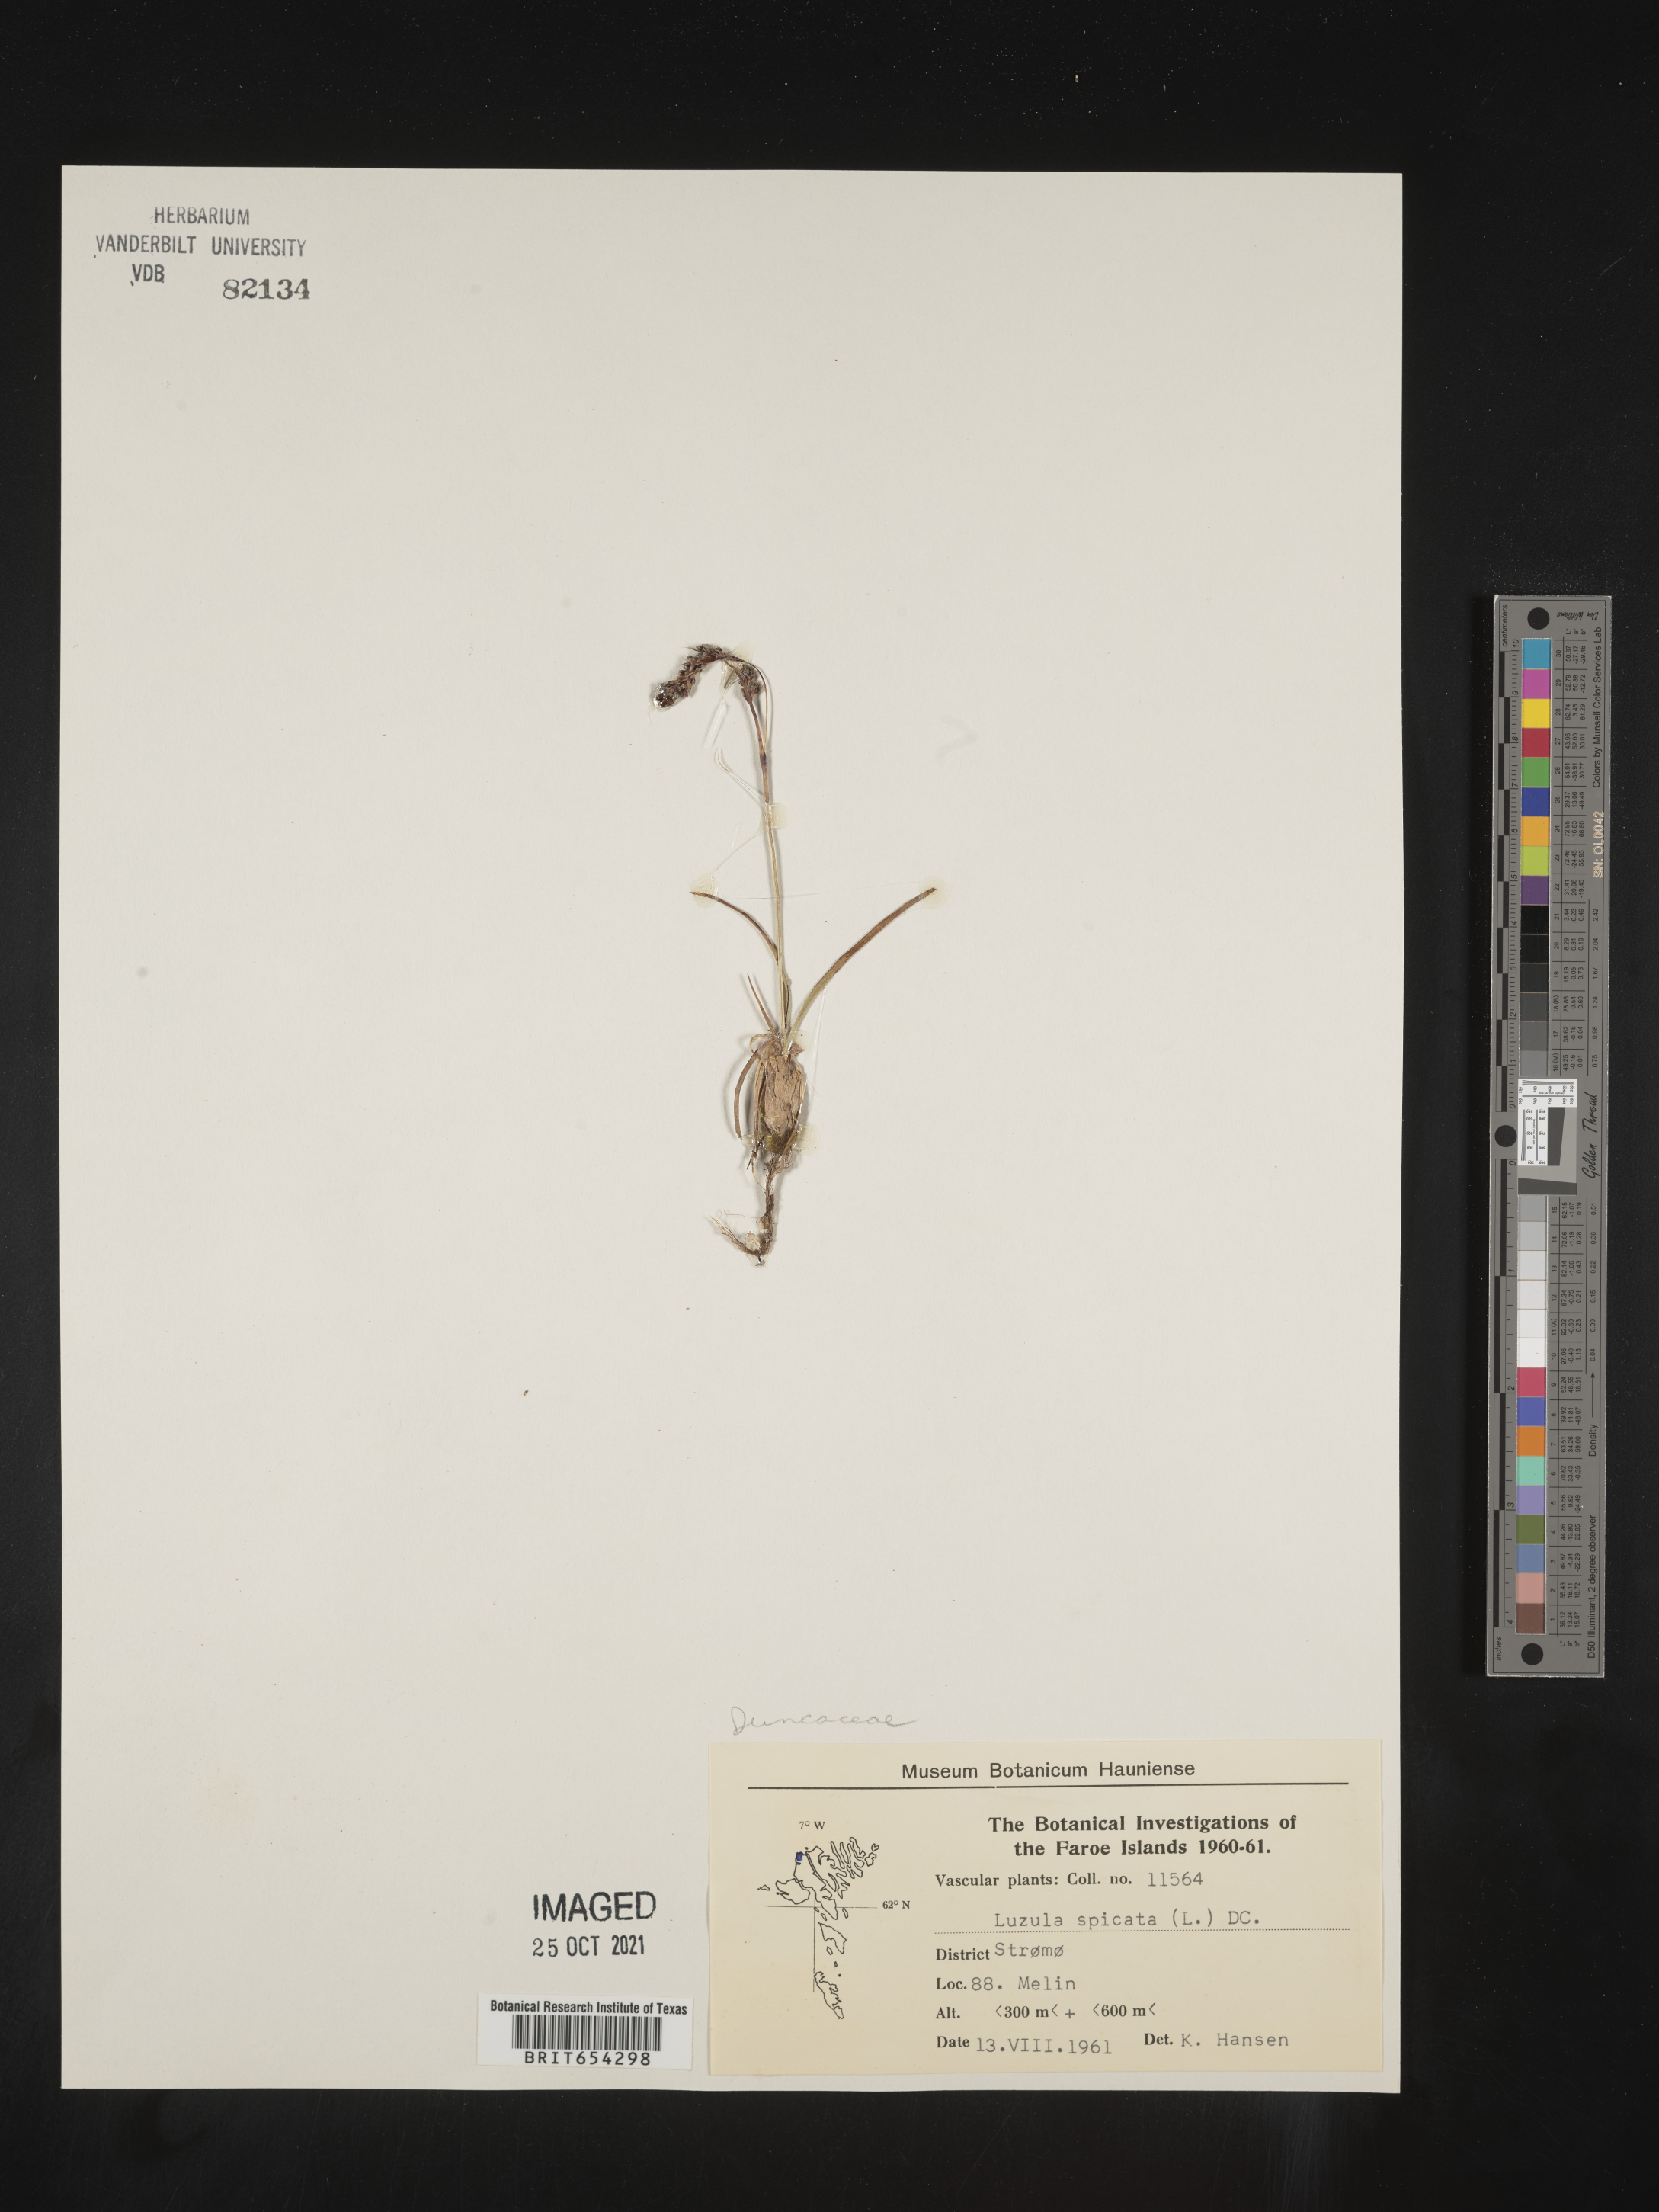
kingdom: Plantae
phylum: Tracheophyta
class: Liliopsida
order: Poales
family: Juncaceae
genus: Luzula
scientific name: Luzula
